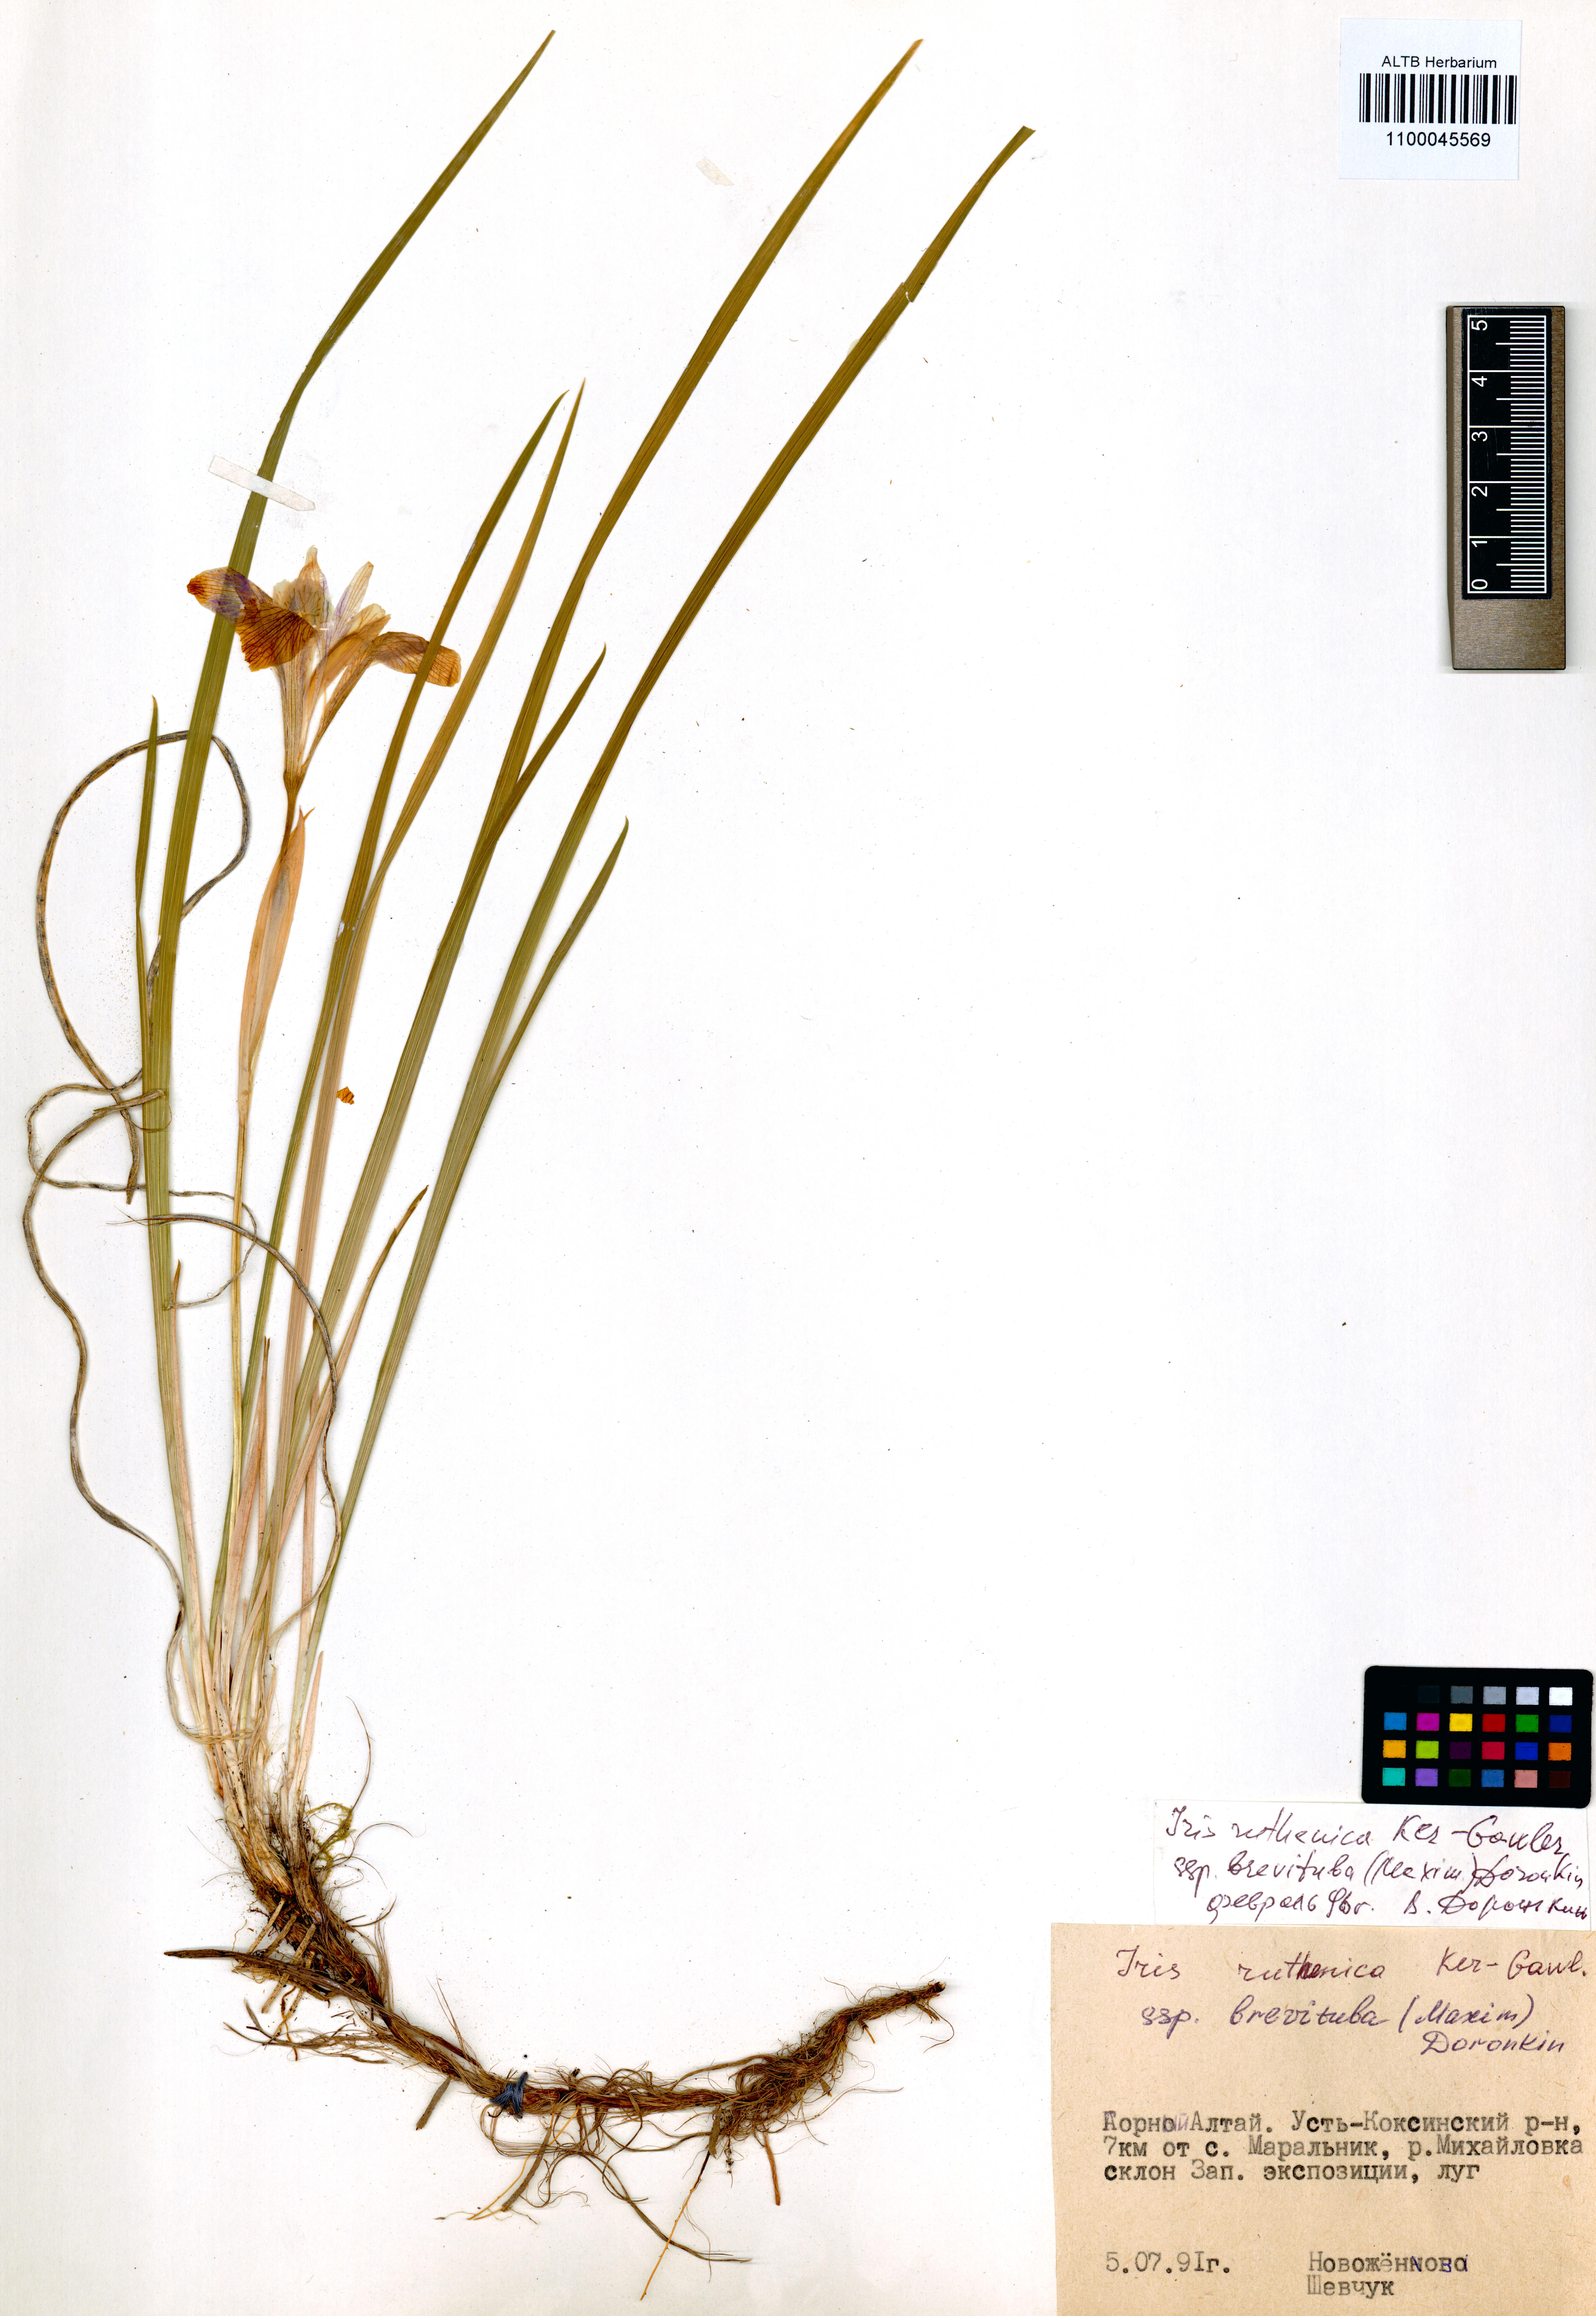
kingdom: Plantae
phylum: Tracheophyta
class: Liliopsida
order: Asparagales
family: Iridaceae
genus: Iris
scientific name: Iris ruthenica
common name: Purple-bract iris
